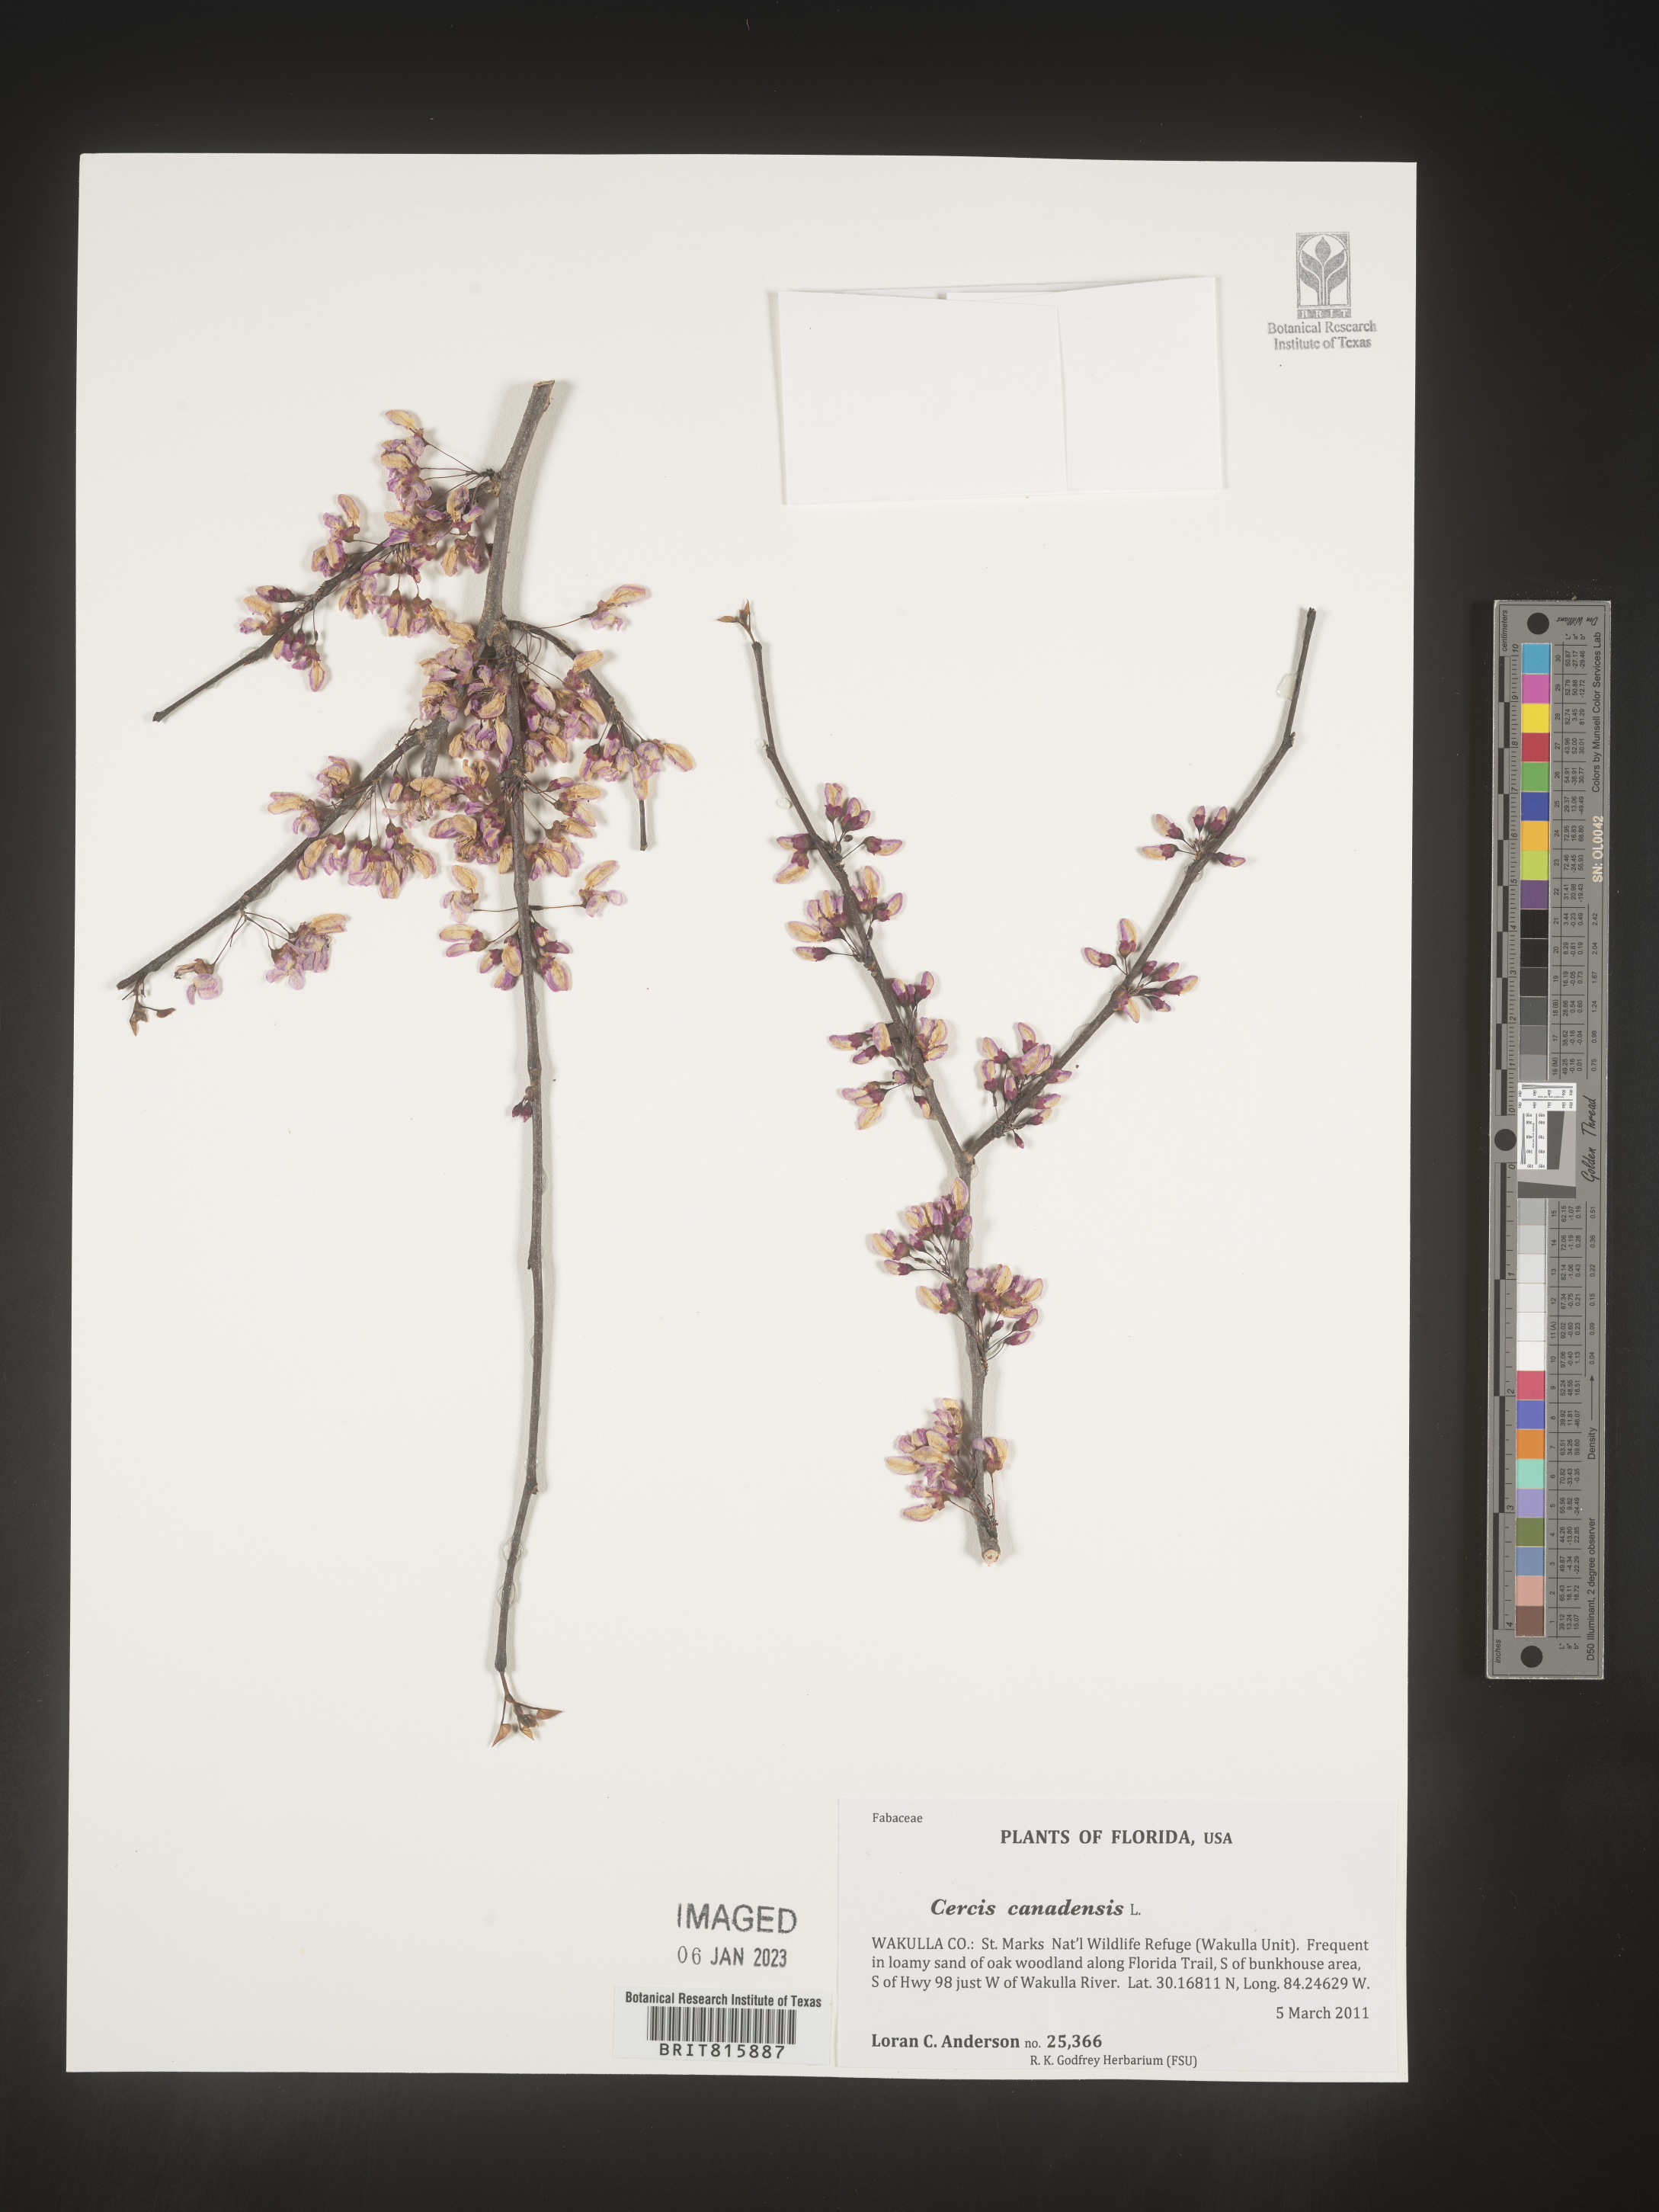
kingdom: Plantae
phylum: Tracheophyta
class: Magnoliopsida
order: Fabales
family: Fabaceae
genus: Cercis
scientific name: Cercis canadensis
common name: Eastern redbud
